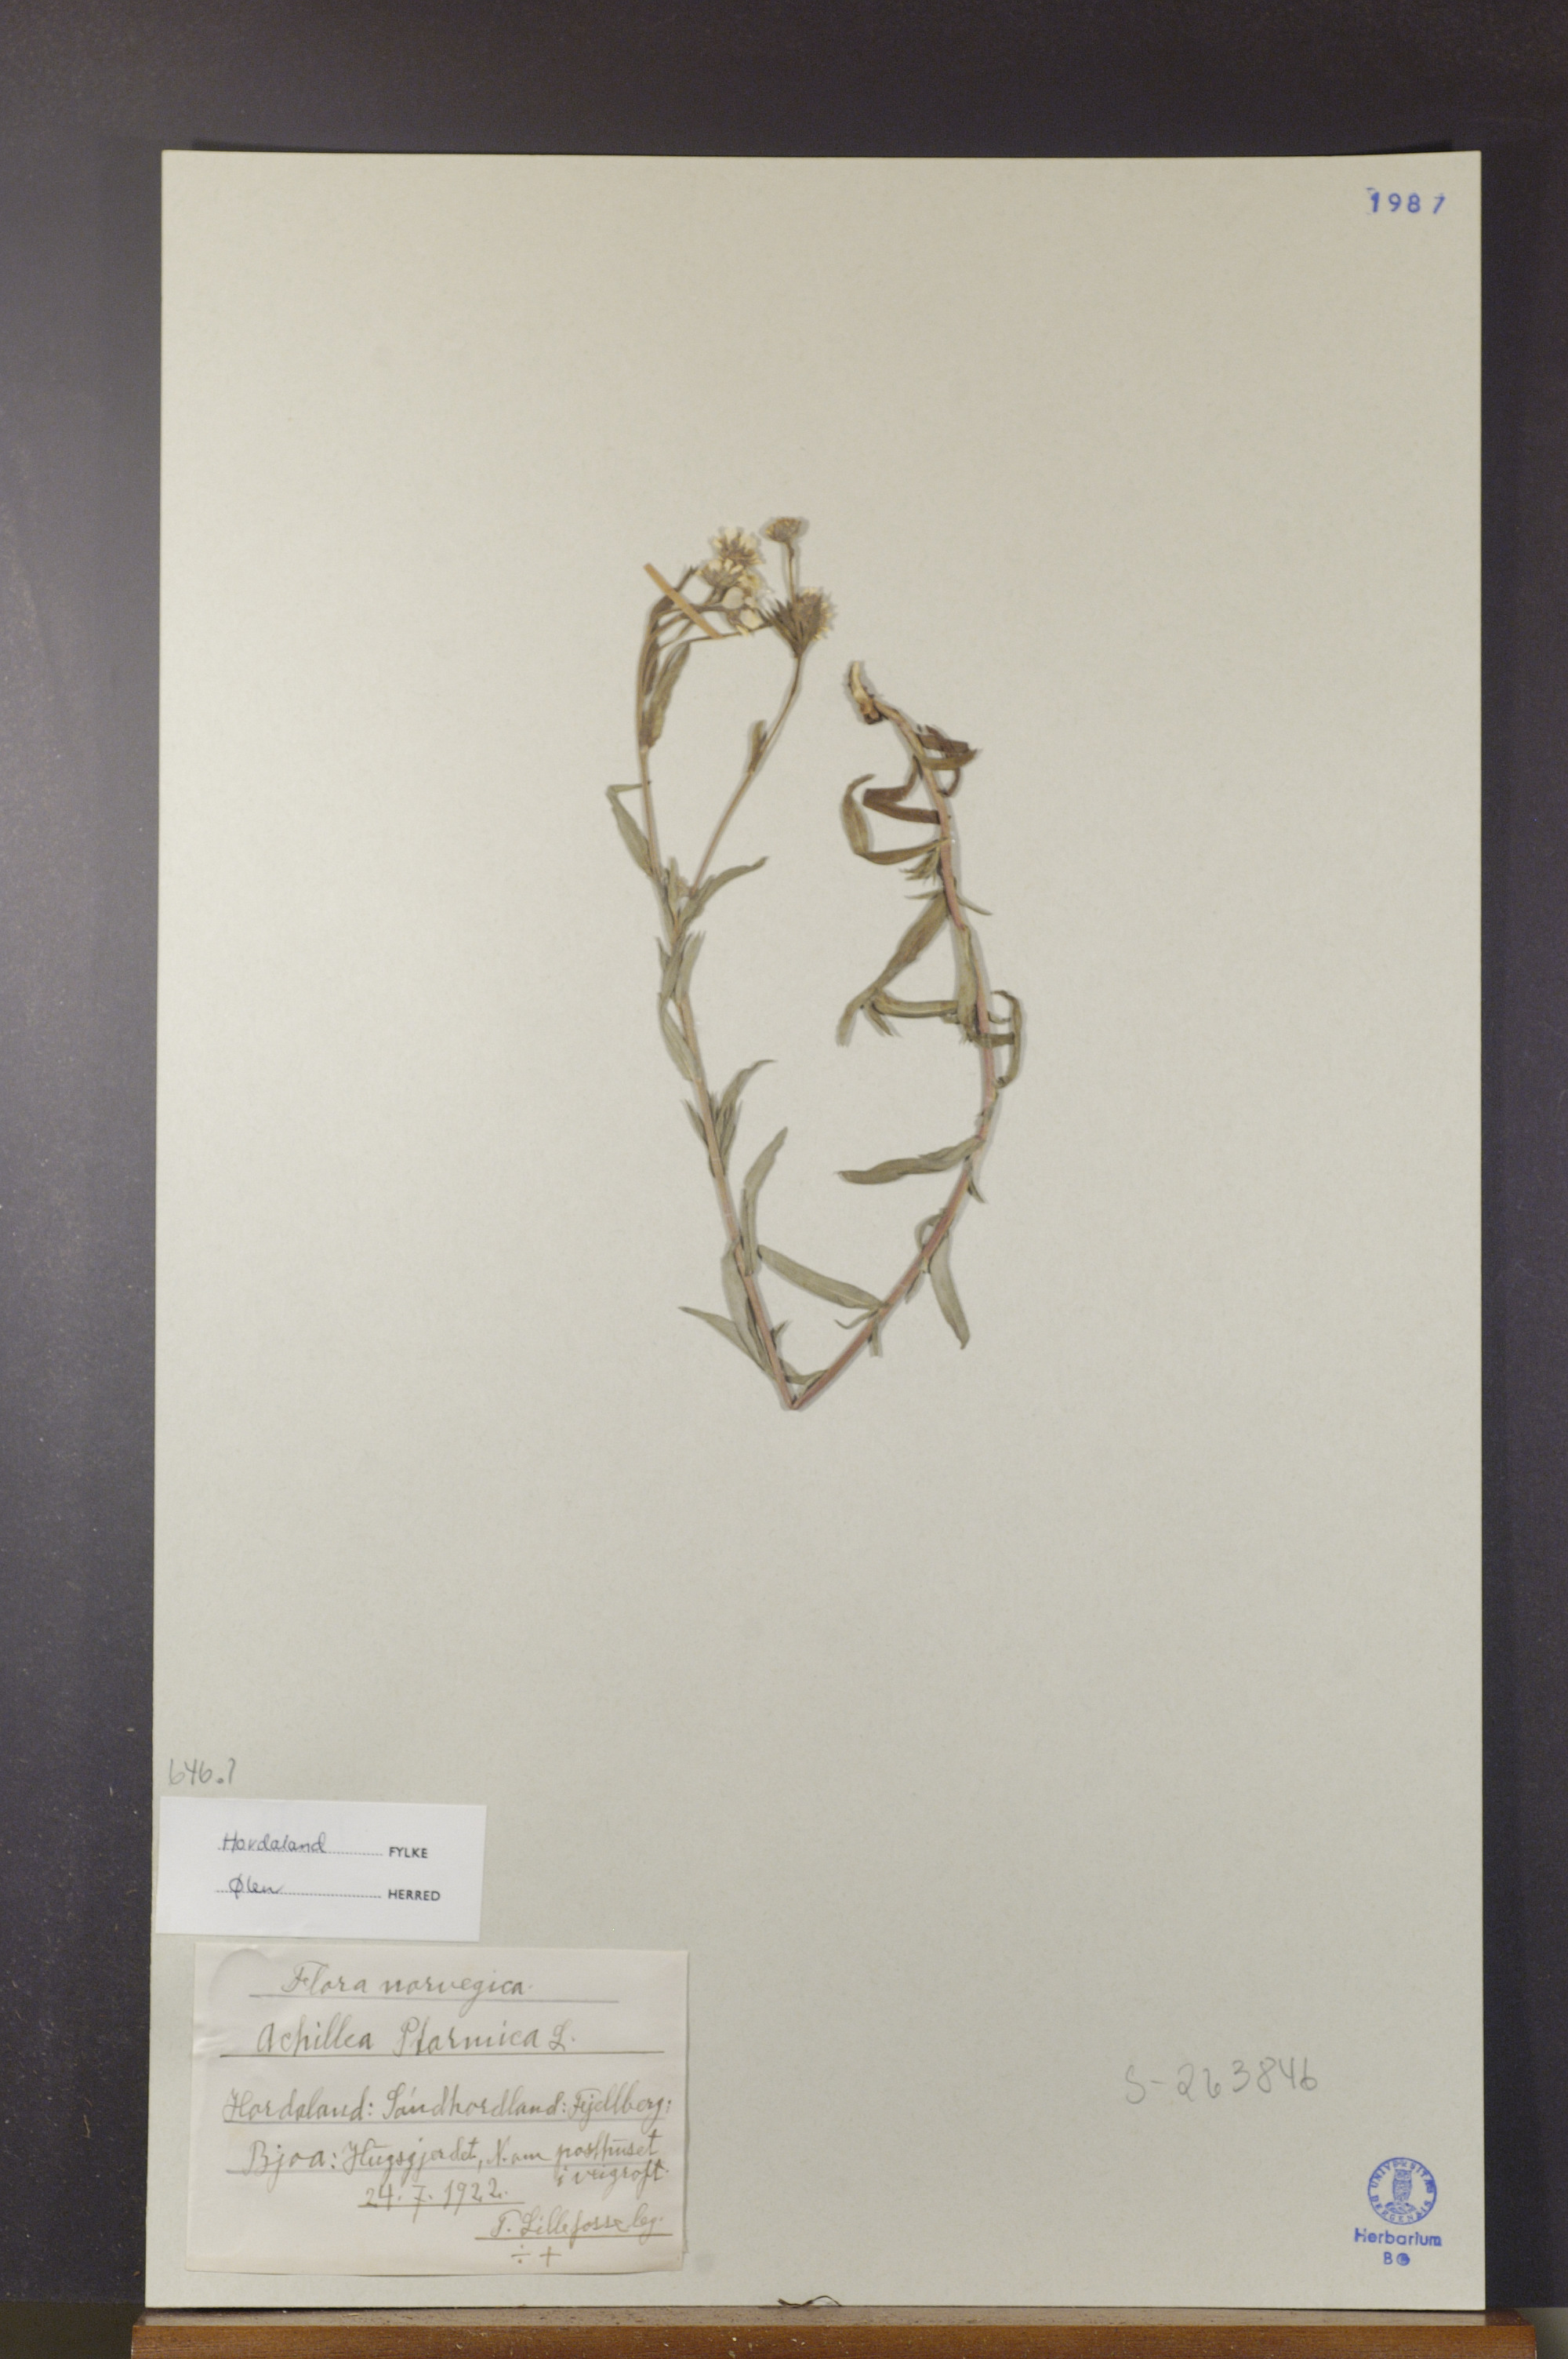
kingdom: Plantae
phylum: Tracheophyta
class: Magnoliopsida
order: Asterales
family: Asteraceae
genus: Achillea
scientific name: Achillea ptarmica
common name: Sneezeweed
